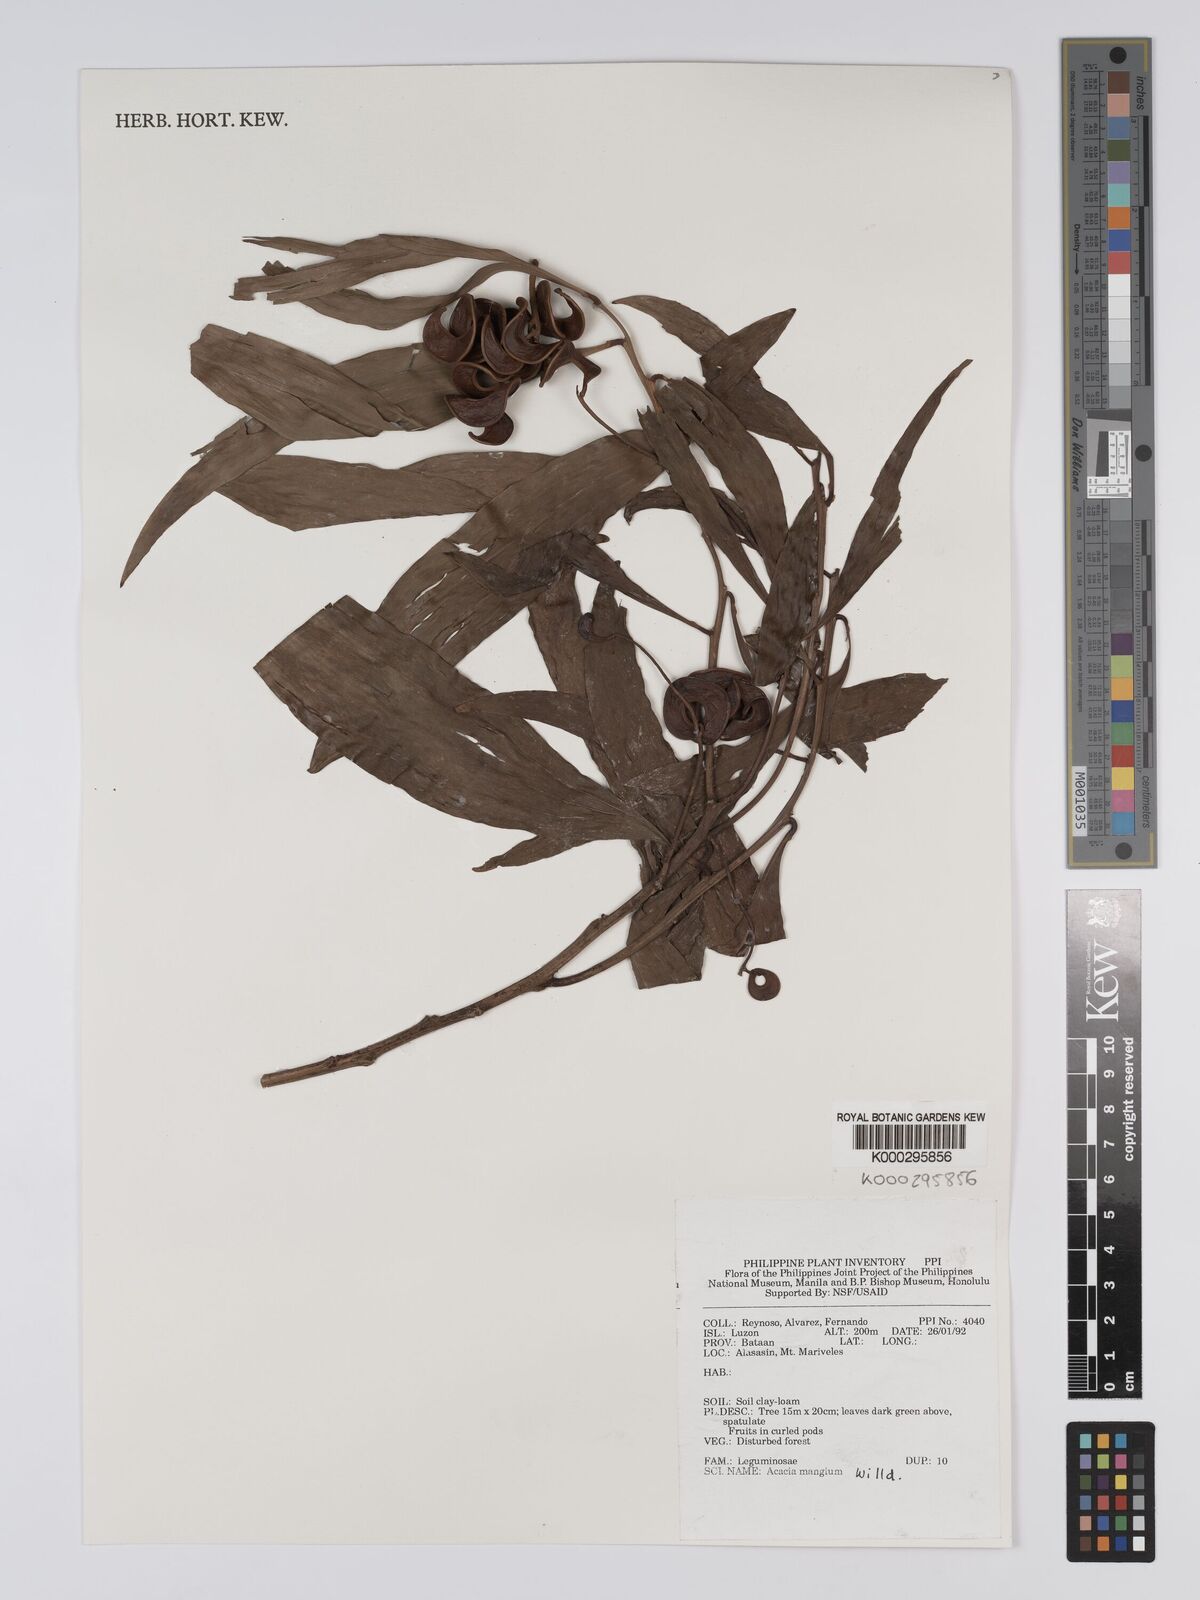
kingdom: Plantae
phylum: Tracheophyta
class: Magnoliopsida
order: Fabales
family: Fabaceae
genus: Acacia
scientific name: Acacia mangium
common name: Black wattle
